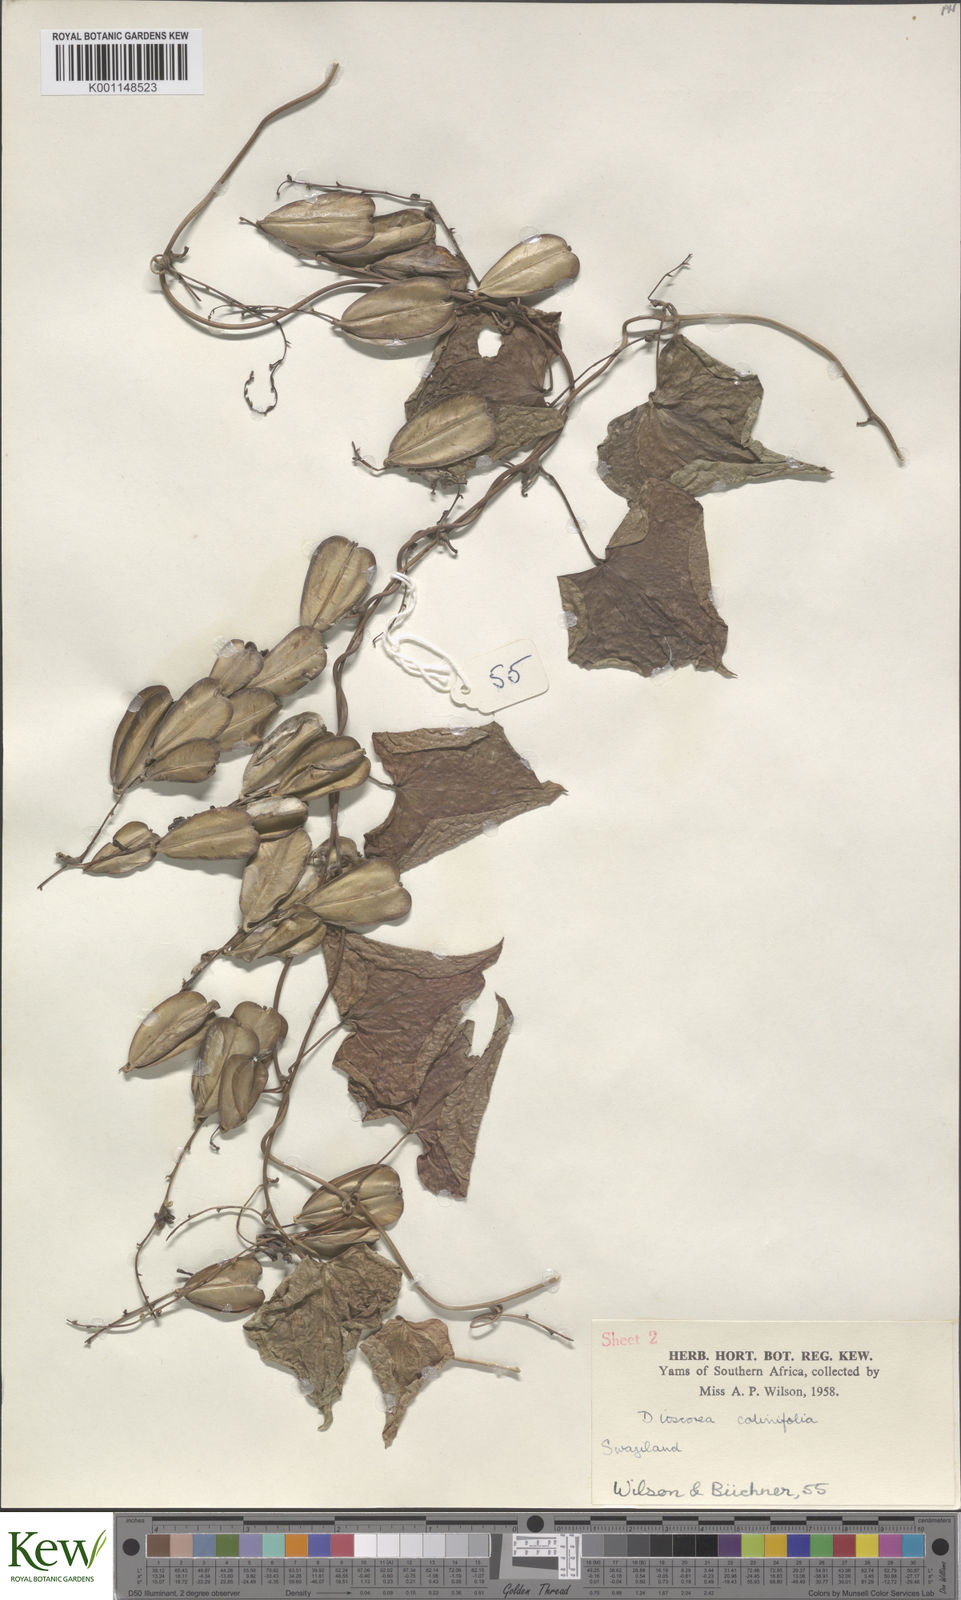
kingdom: Plantae
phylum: Tracheophyta
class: Liliopsida
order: Dioscoreales
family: Dioscoreaceae
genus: Dioscorea
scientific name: Dioscorea cotinifolia
